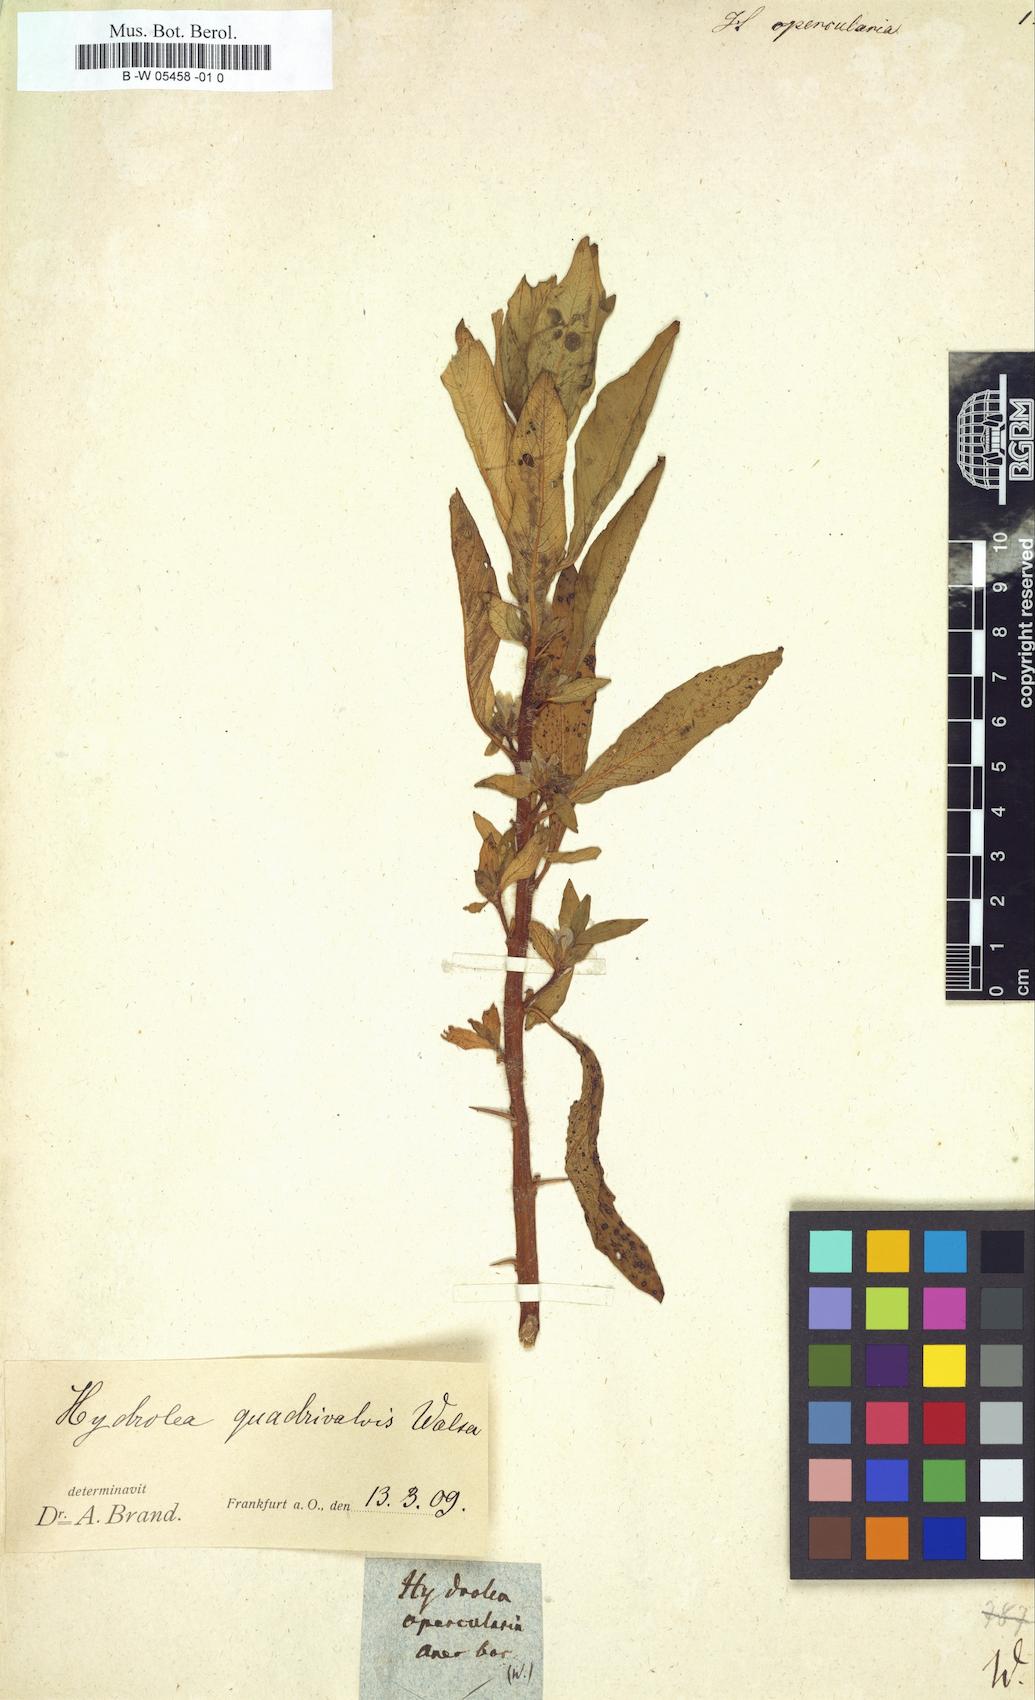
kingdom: Plantae
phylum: Tracheophyta
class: Magnoliopsida
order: Boraginales
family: Hydrophyllaceae
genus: Hydrolea
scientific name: Hydrolea opercularia
